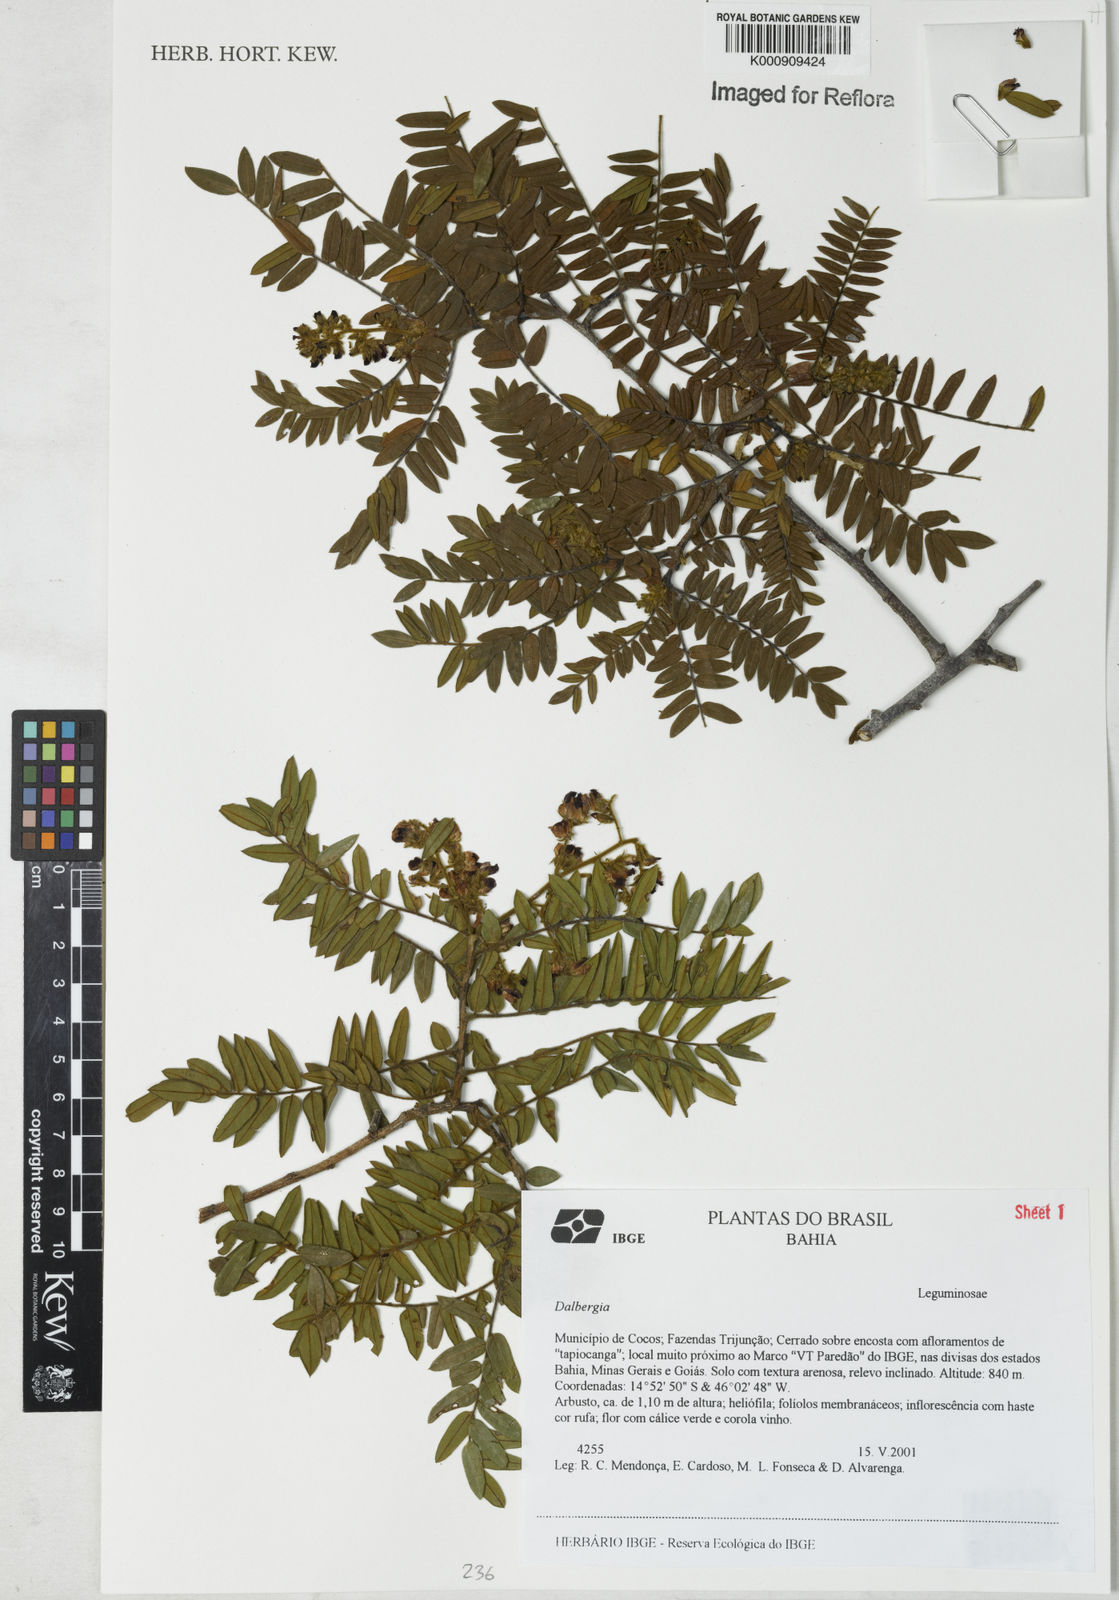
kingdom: Plantae
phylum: Tracheophyta
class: Magnoliopsida
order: Fabales
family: Fabaceae
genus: Dalbergia
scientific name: Dalbergia
